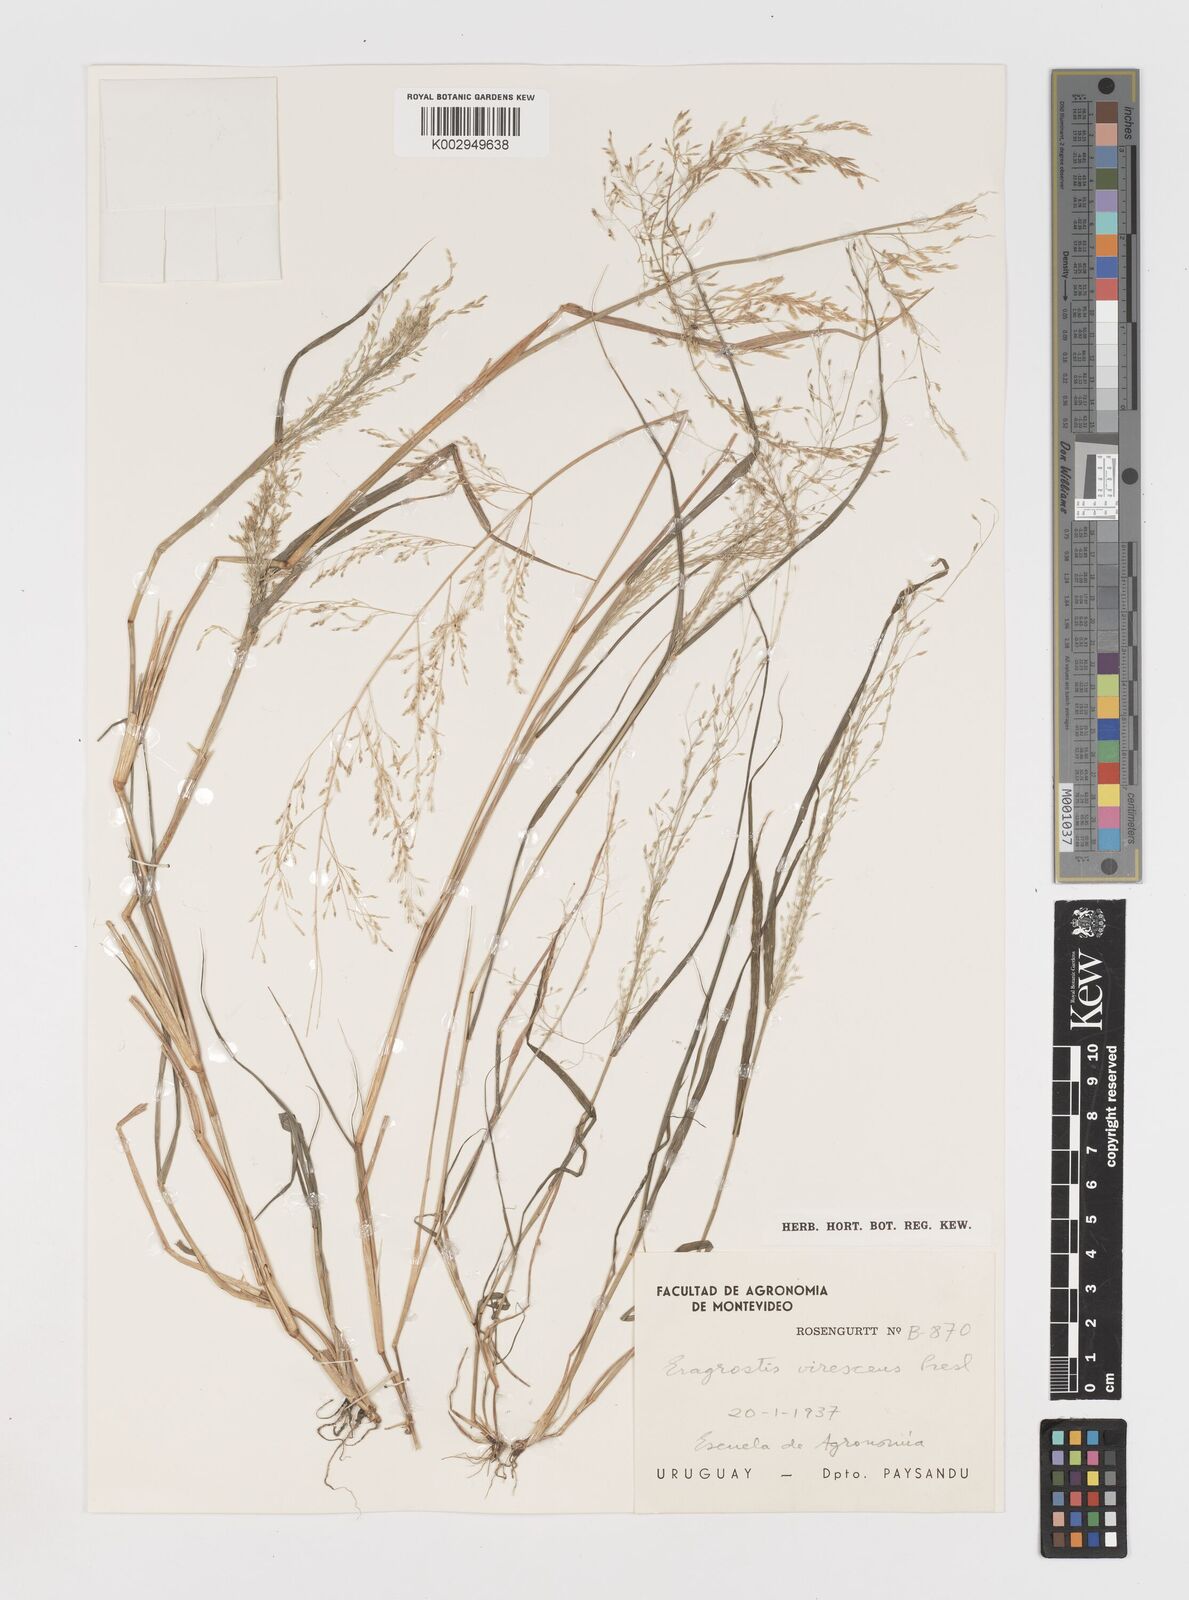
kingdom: Plantae
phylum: Tracheophyta
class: Liliopsida
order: Poales
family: Poaceae
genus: Eragrostis
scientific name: Eragrostis pilosa
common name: Indian lovegrass
